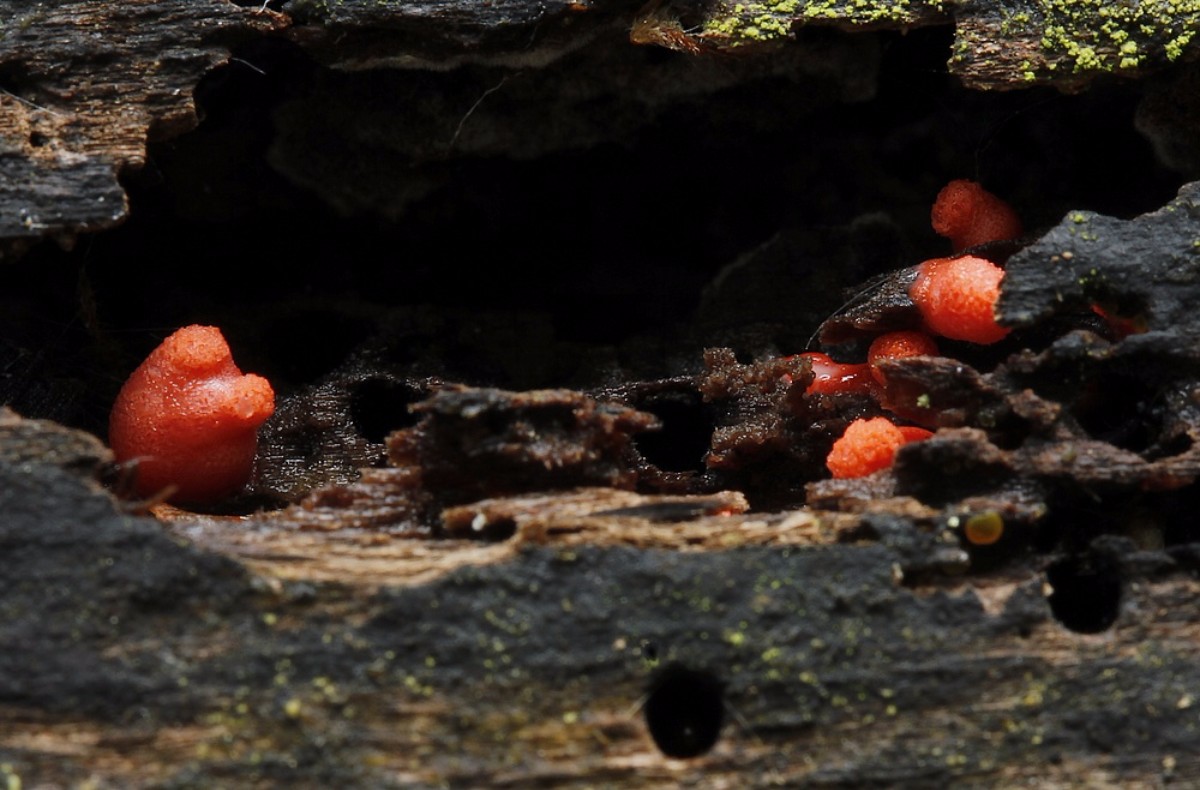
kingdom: Protozoa
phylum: Mycetozoa
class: Myxomycetes
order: Cribrariales
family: Tubiferaceae
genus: Lycogala
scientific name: Lycogala
